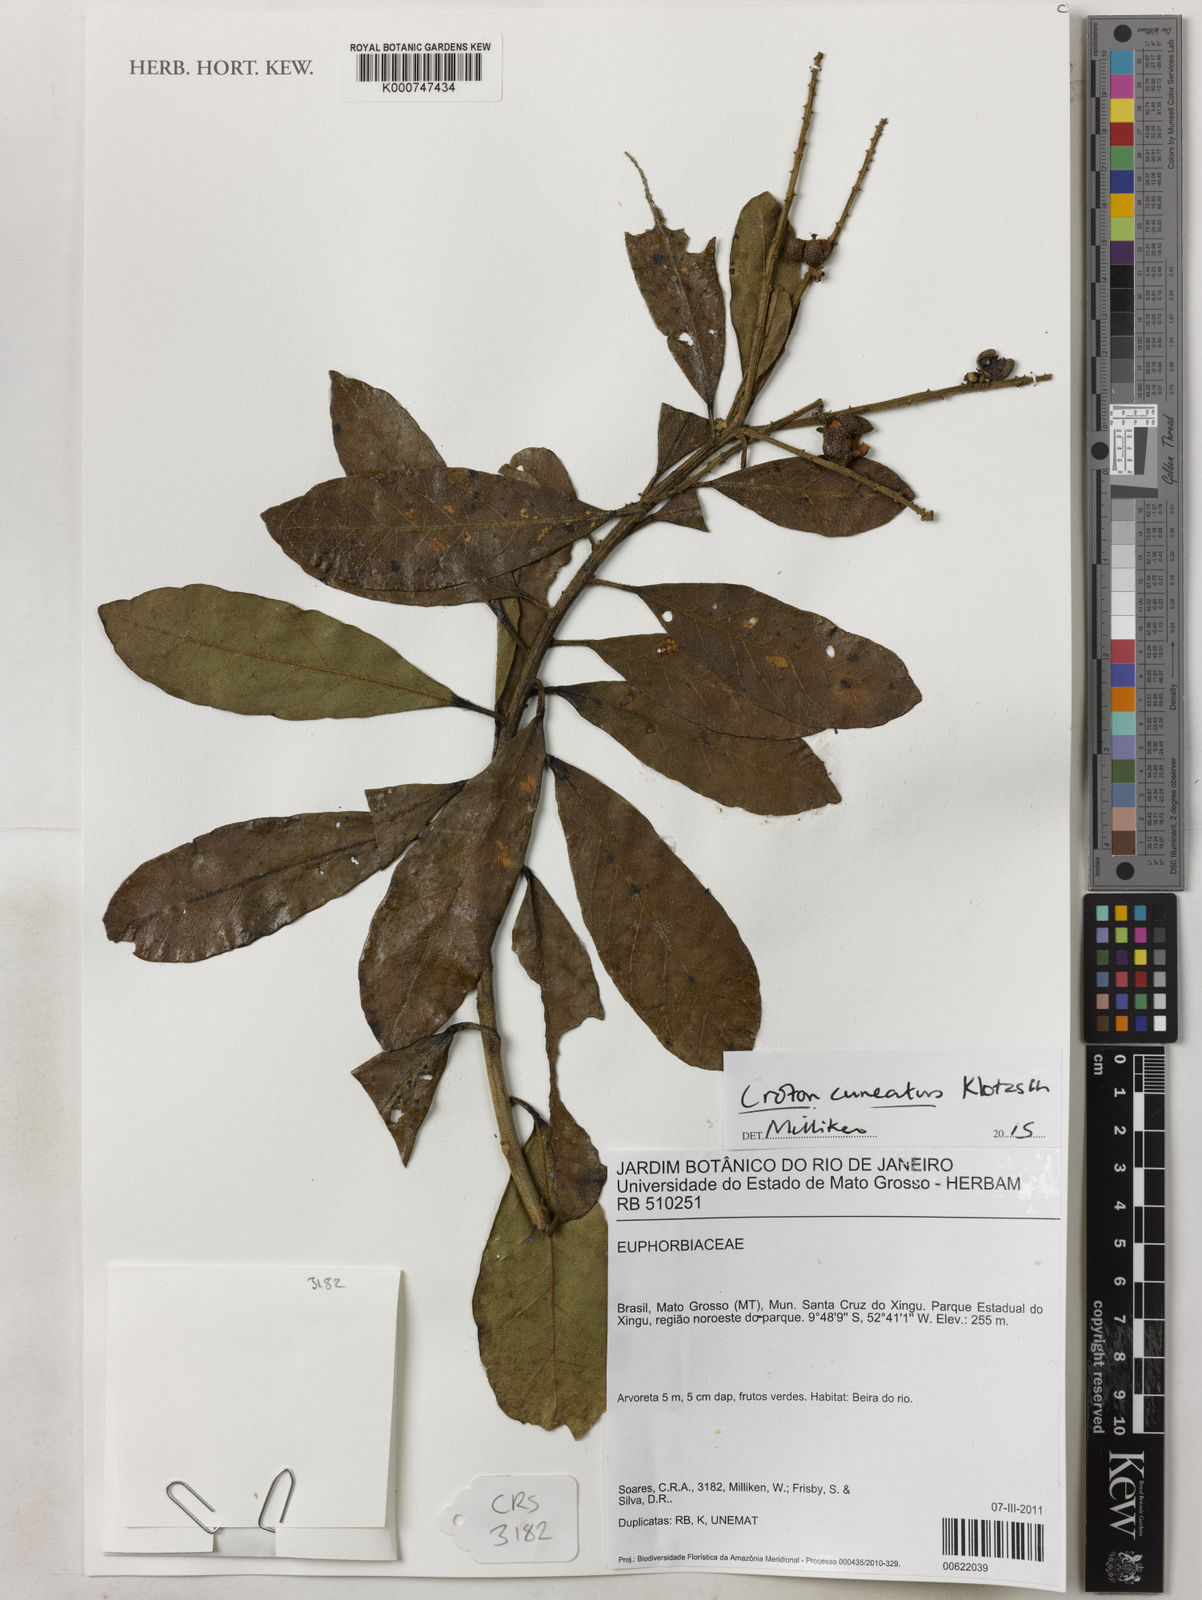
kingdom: Plantae
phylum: Tracheophyta
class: Magnoliopsida
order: Malpighiales
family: Euphorbiaceae
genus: Croton
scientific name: Croton
